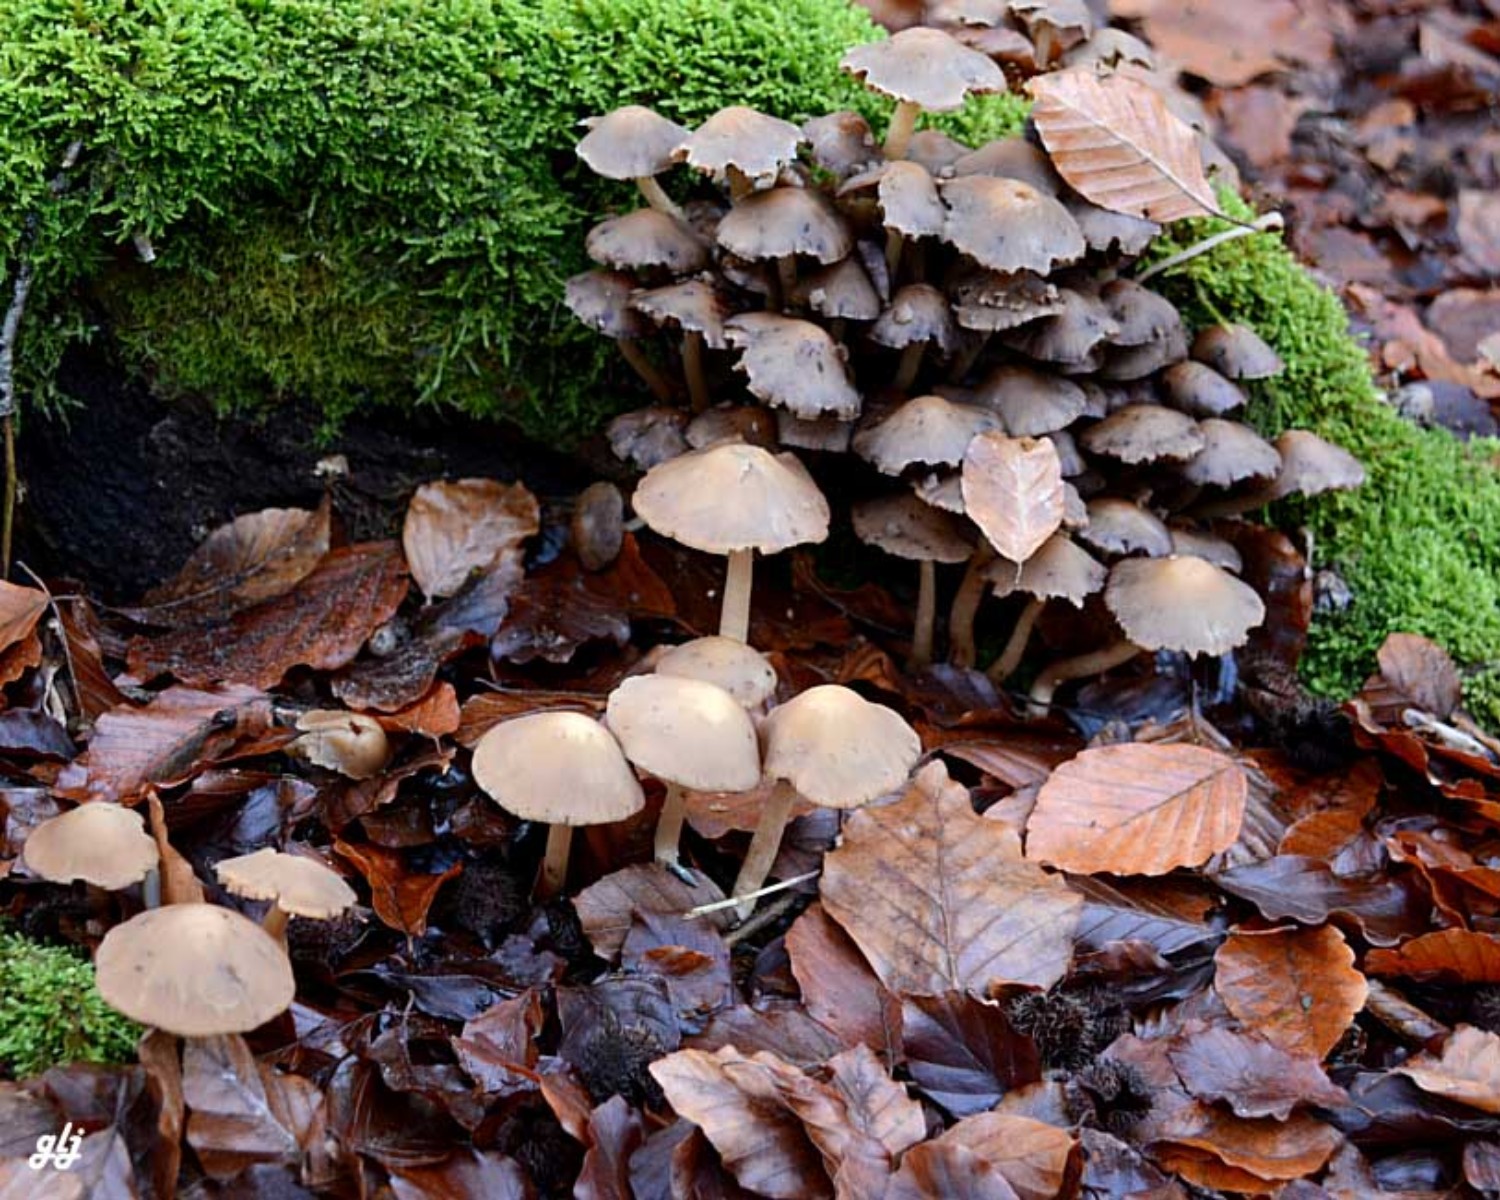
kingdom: Fungi
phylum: Basidiomycota
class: Agaricomycetes
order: Agaricales
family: Psathyrellaceae
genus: Psathyrella
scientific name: Psathyrella piluliformis
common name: lysstokket mørkhat
